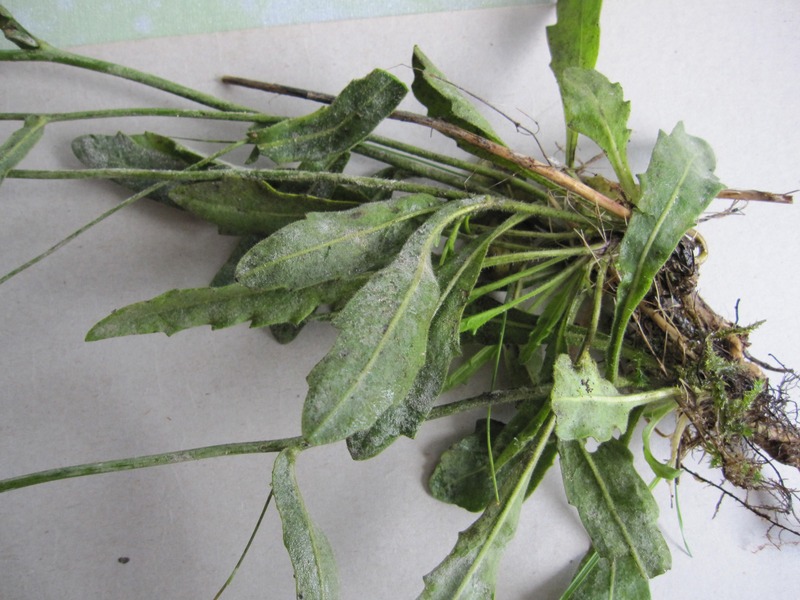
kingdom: Fungi
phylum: Ascomycota
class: Leotiomycetes
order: Helotiales
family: Erysiphaceae
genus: Erysiphe
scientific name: Erysiphe cruciferarum
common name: Brassica powdery mildew
